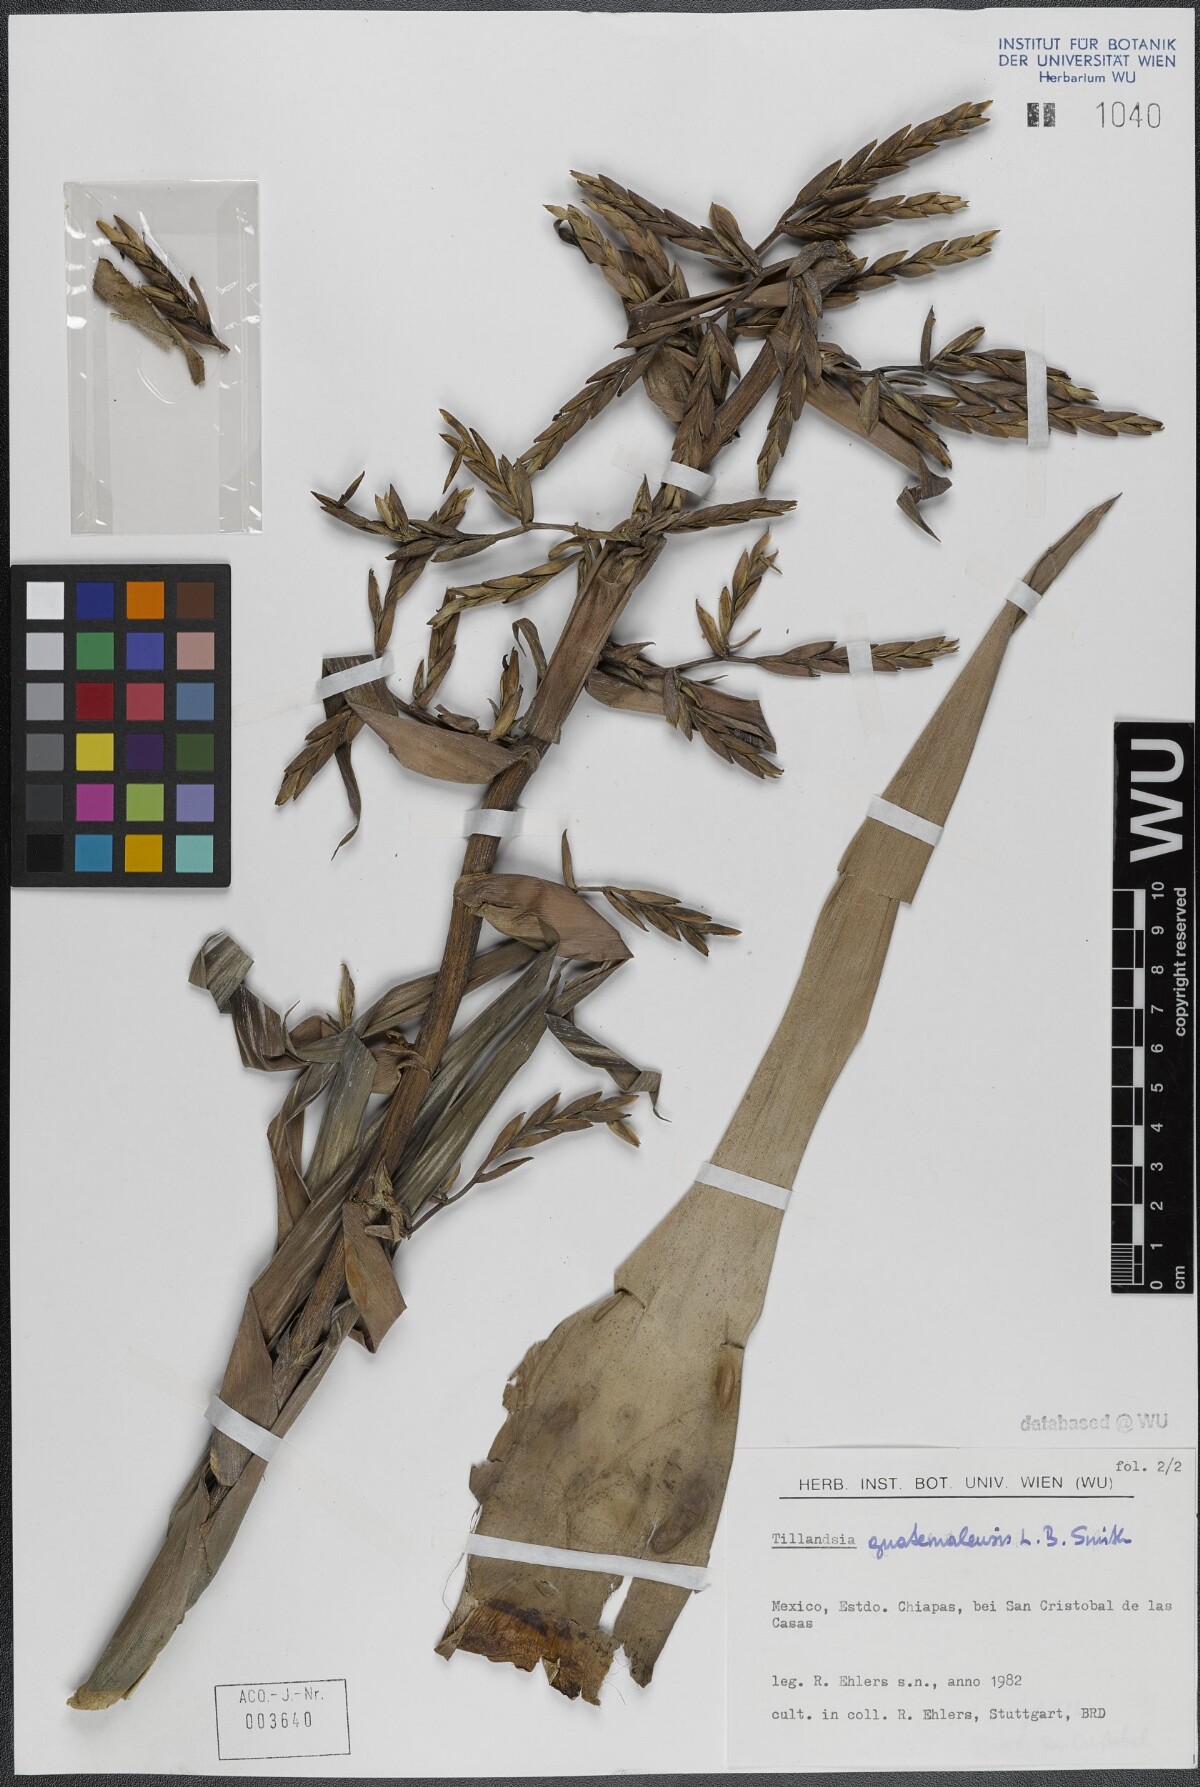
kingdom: Plantae
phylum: Tracheophyta
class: Liliopsida
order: Poales
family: Bromeliaceae
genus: Tillandsia
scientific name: Tillandsia guatemalensis
